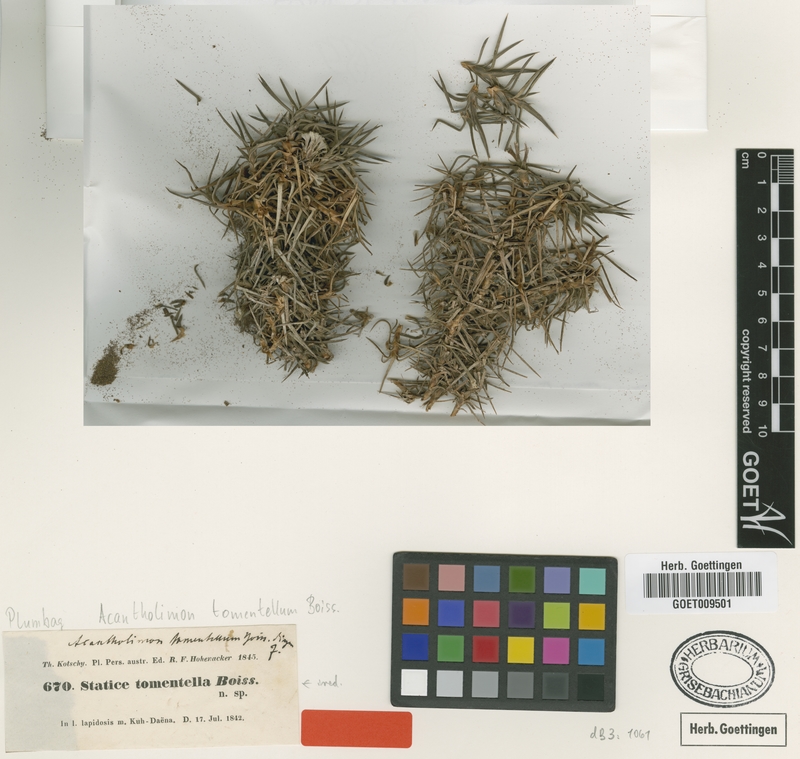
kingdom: Plantae
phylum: Tracheophyta
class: Magnoliopsida
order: Caryophyllales
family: Plumbaginaceae
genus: Acantholimon
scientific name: Acantholimon tomentellum
